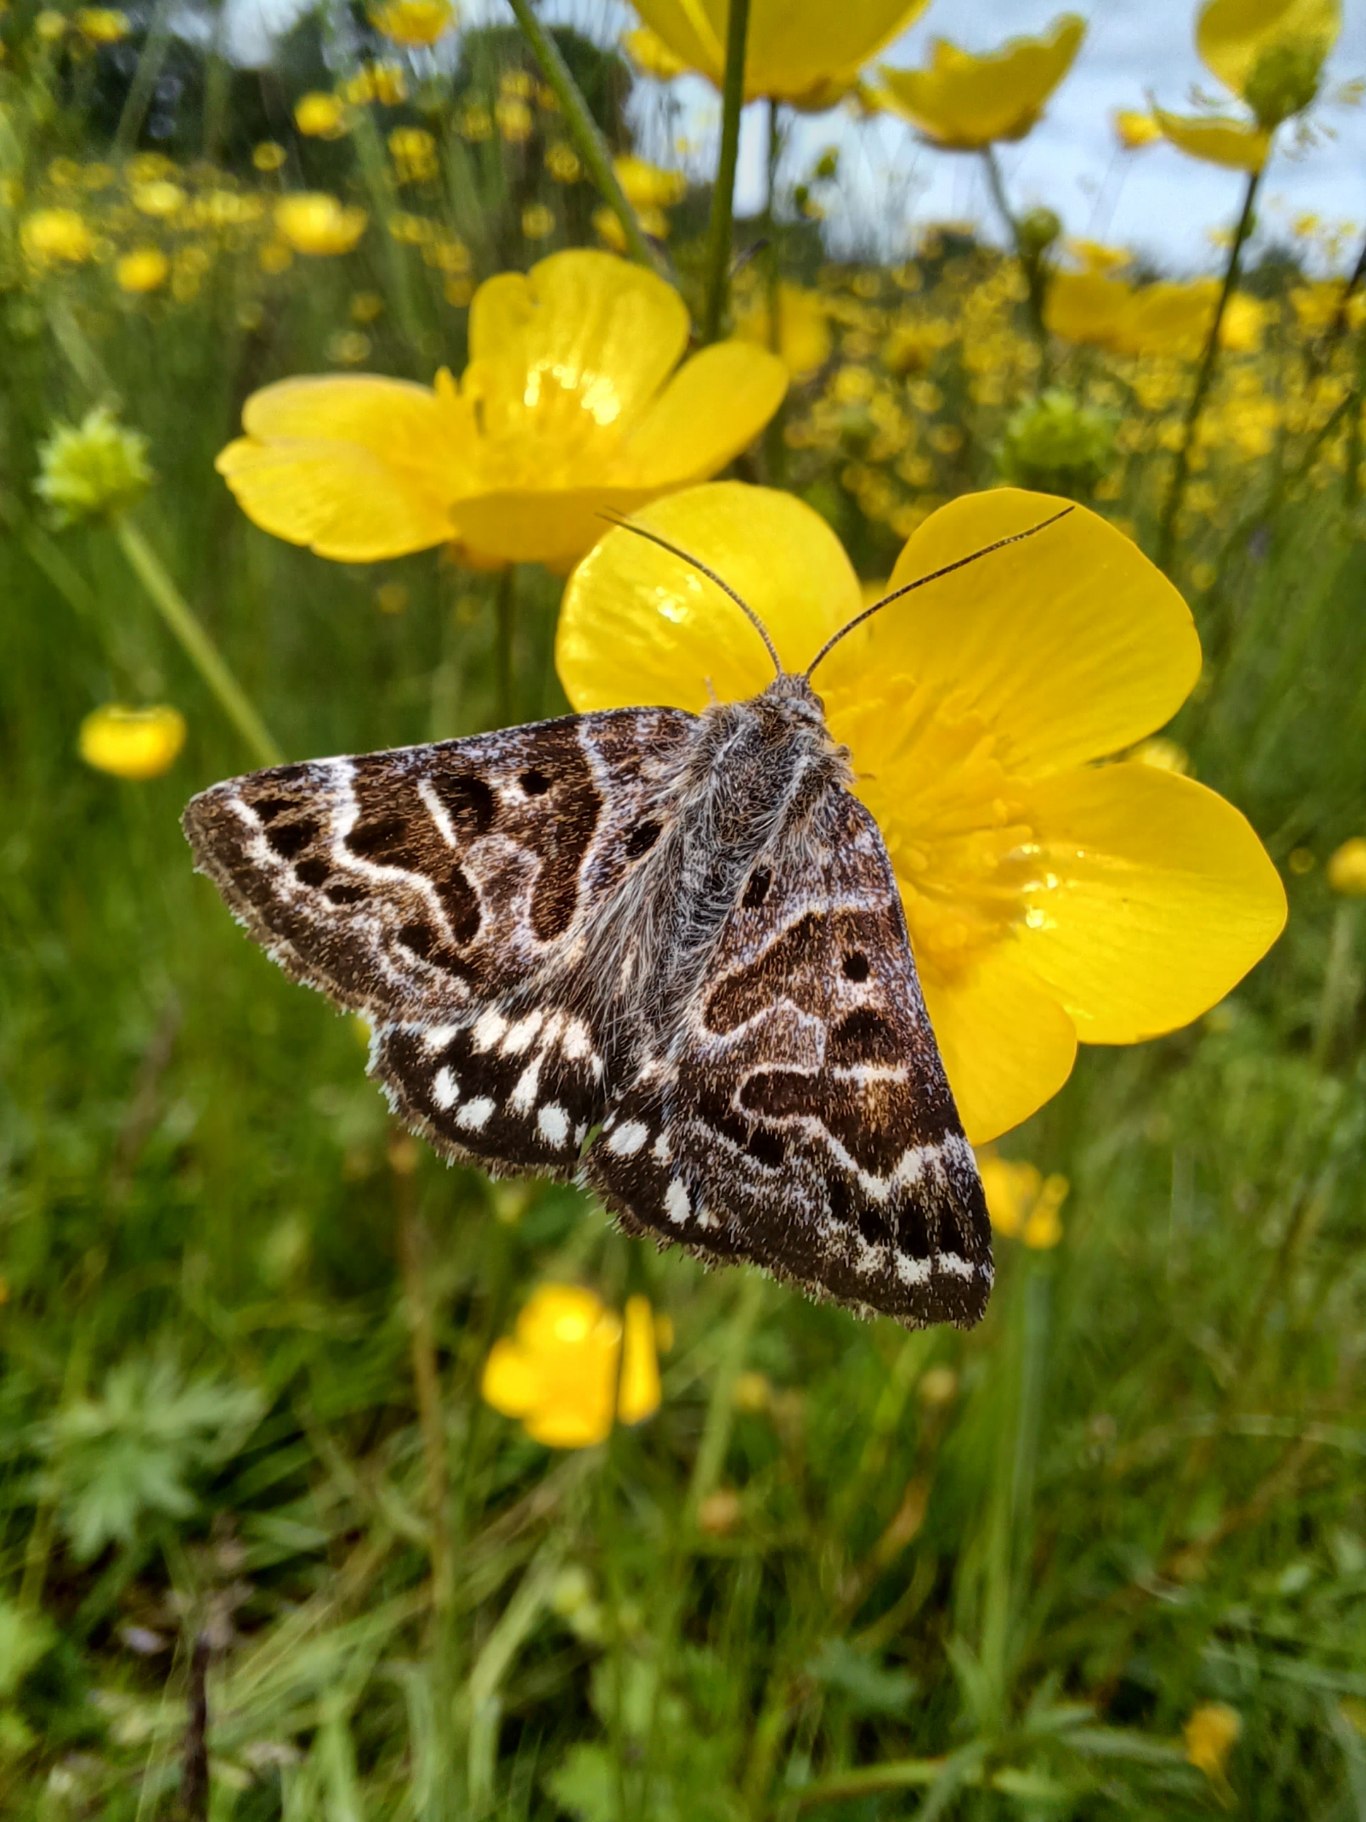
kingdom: Animalia
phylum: Arthropoda
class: Insecta
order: Lepidoptera
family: Erebidae
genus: Callistege
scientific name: Callistege mi
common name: Marmoreret kløverugle
